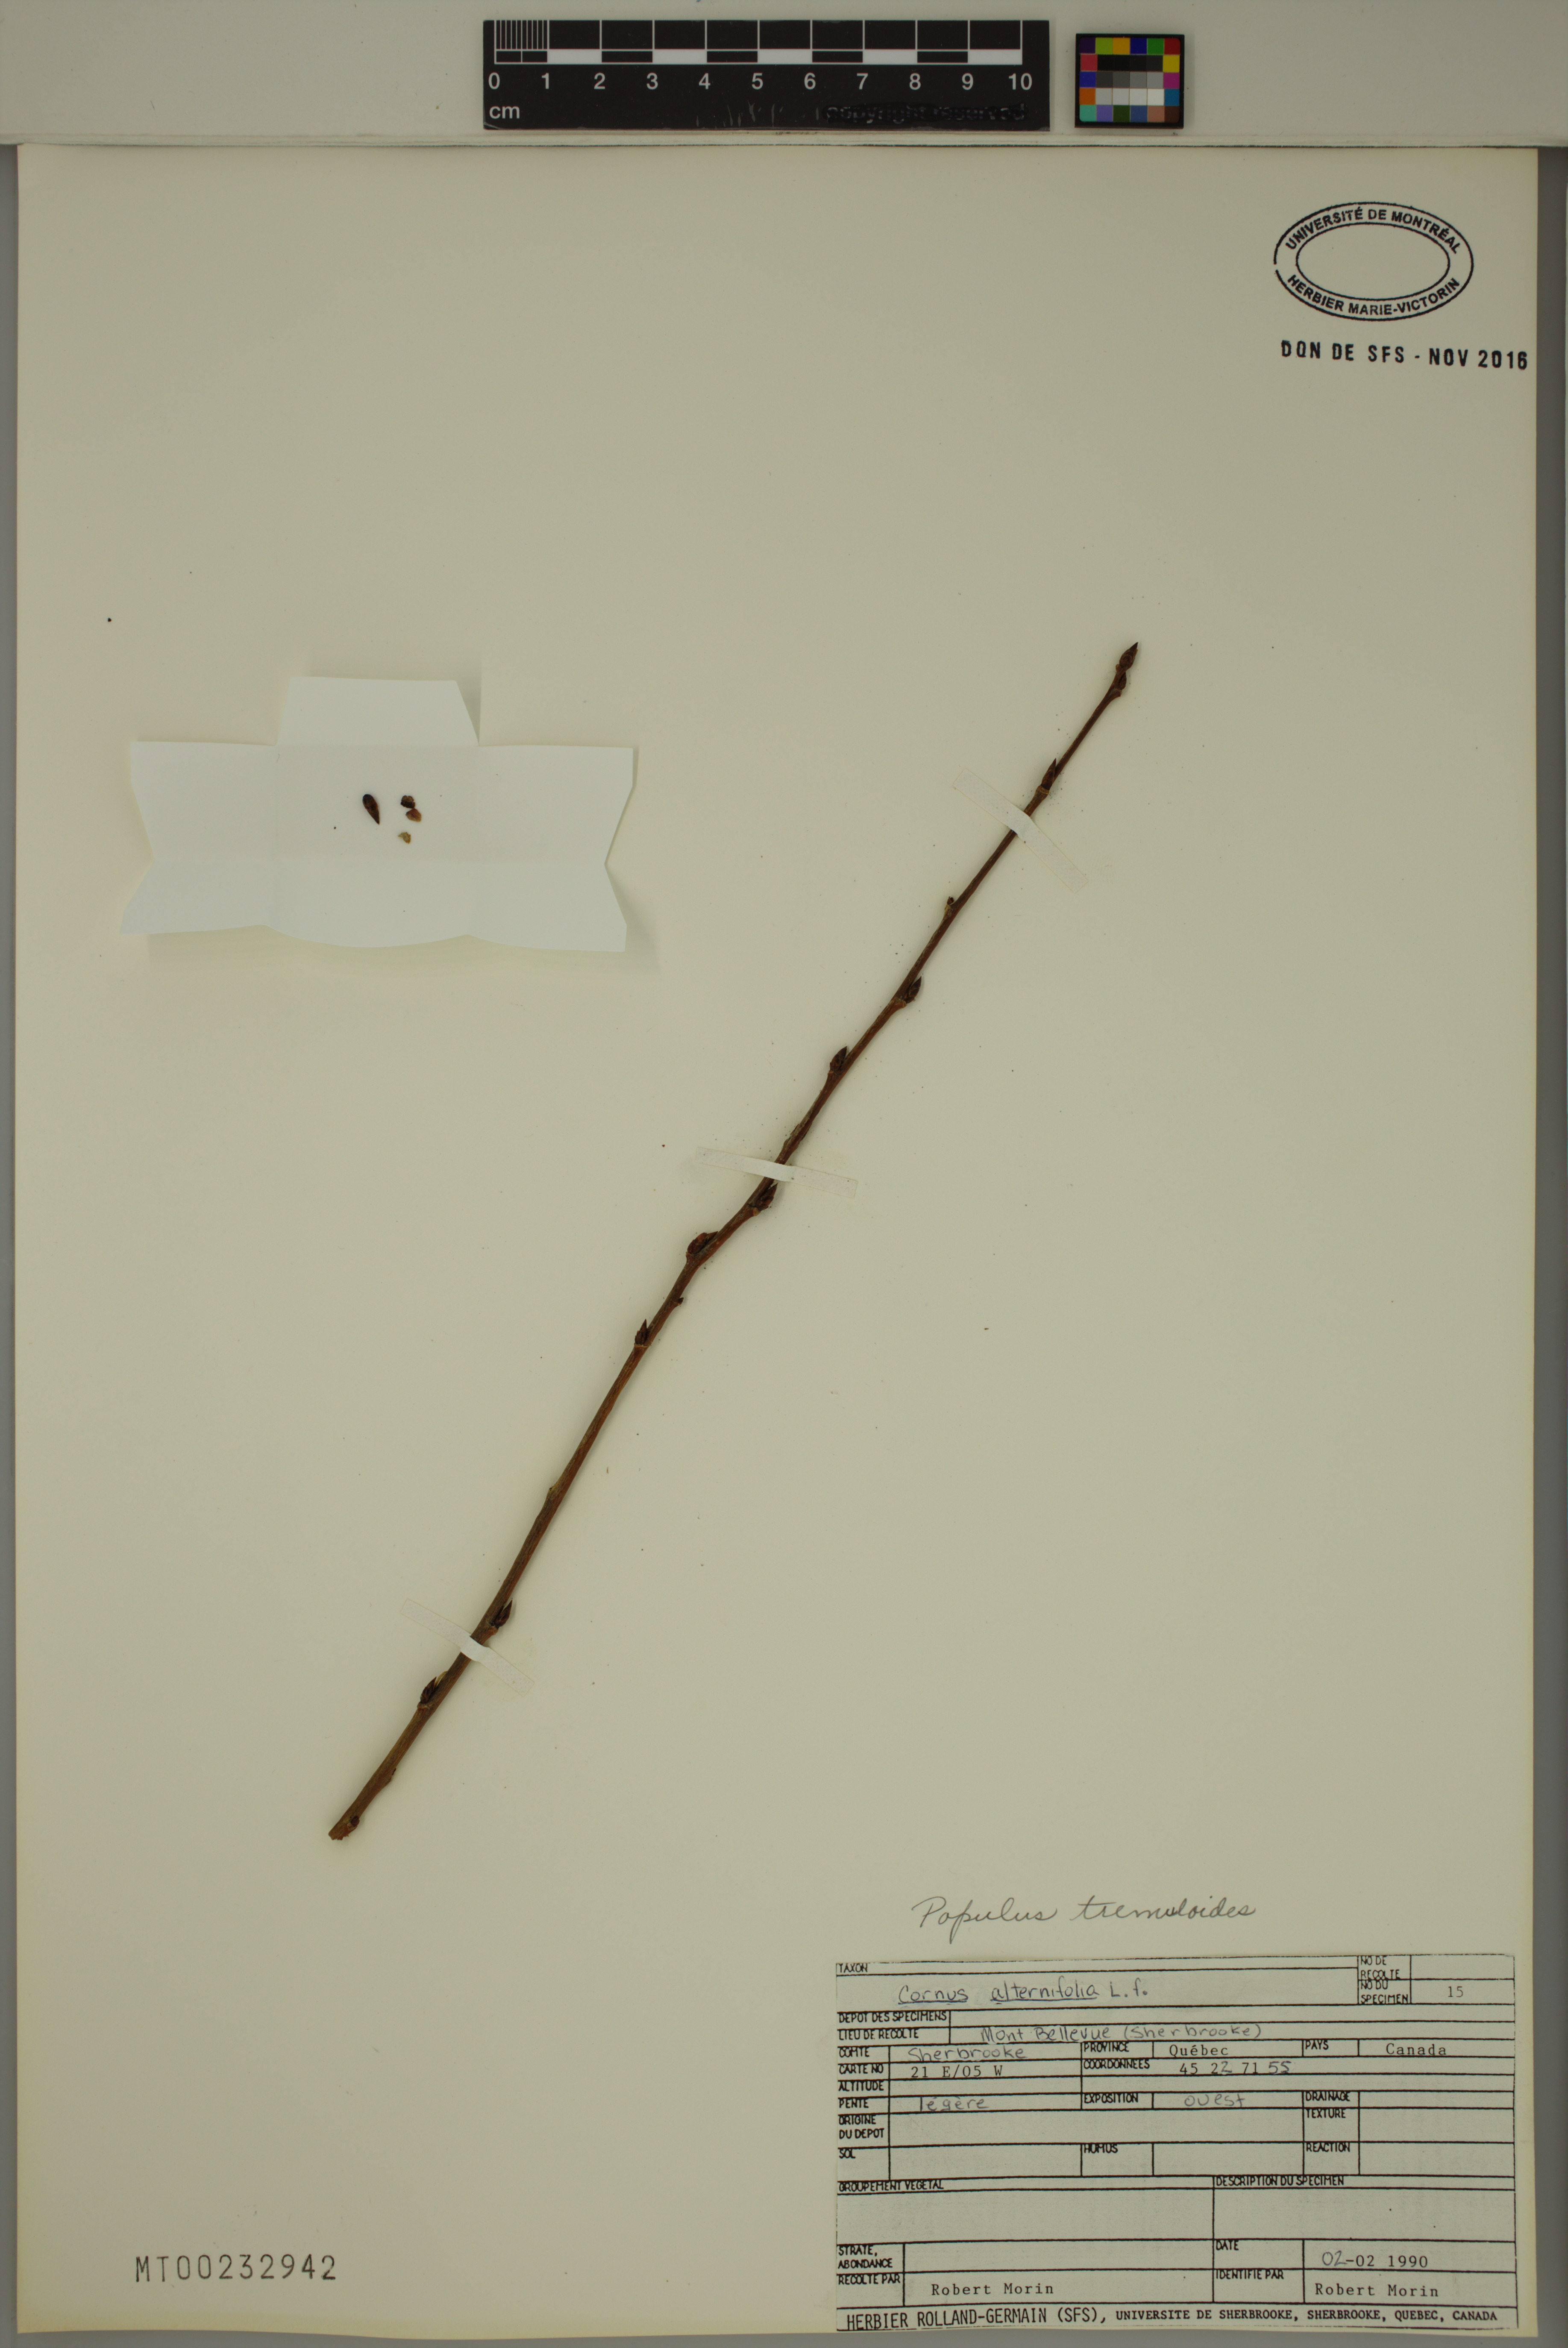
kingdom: Plantae
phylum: Tracheophyta
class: Magnoliopsida
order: Malpighiales
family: Salicaceae
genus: Populus
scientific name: Populus tremuloides
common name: Quaking aspen
